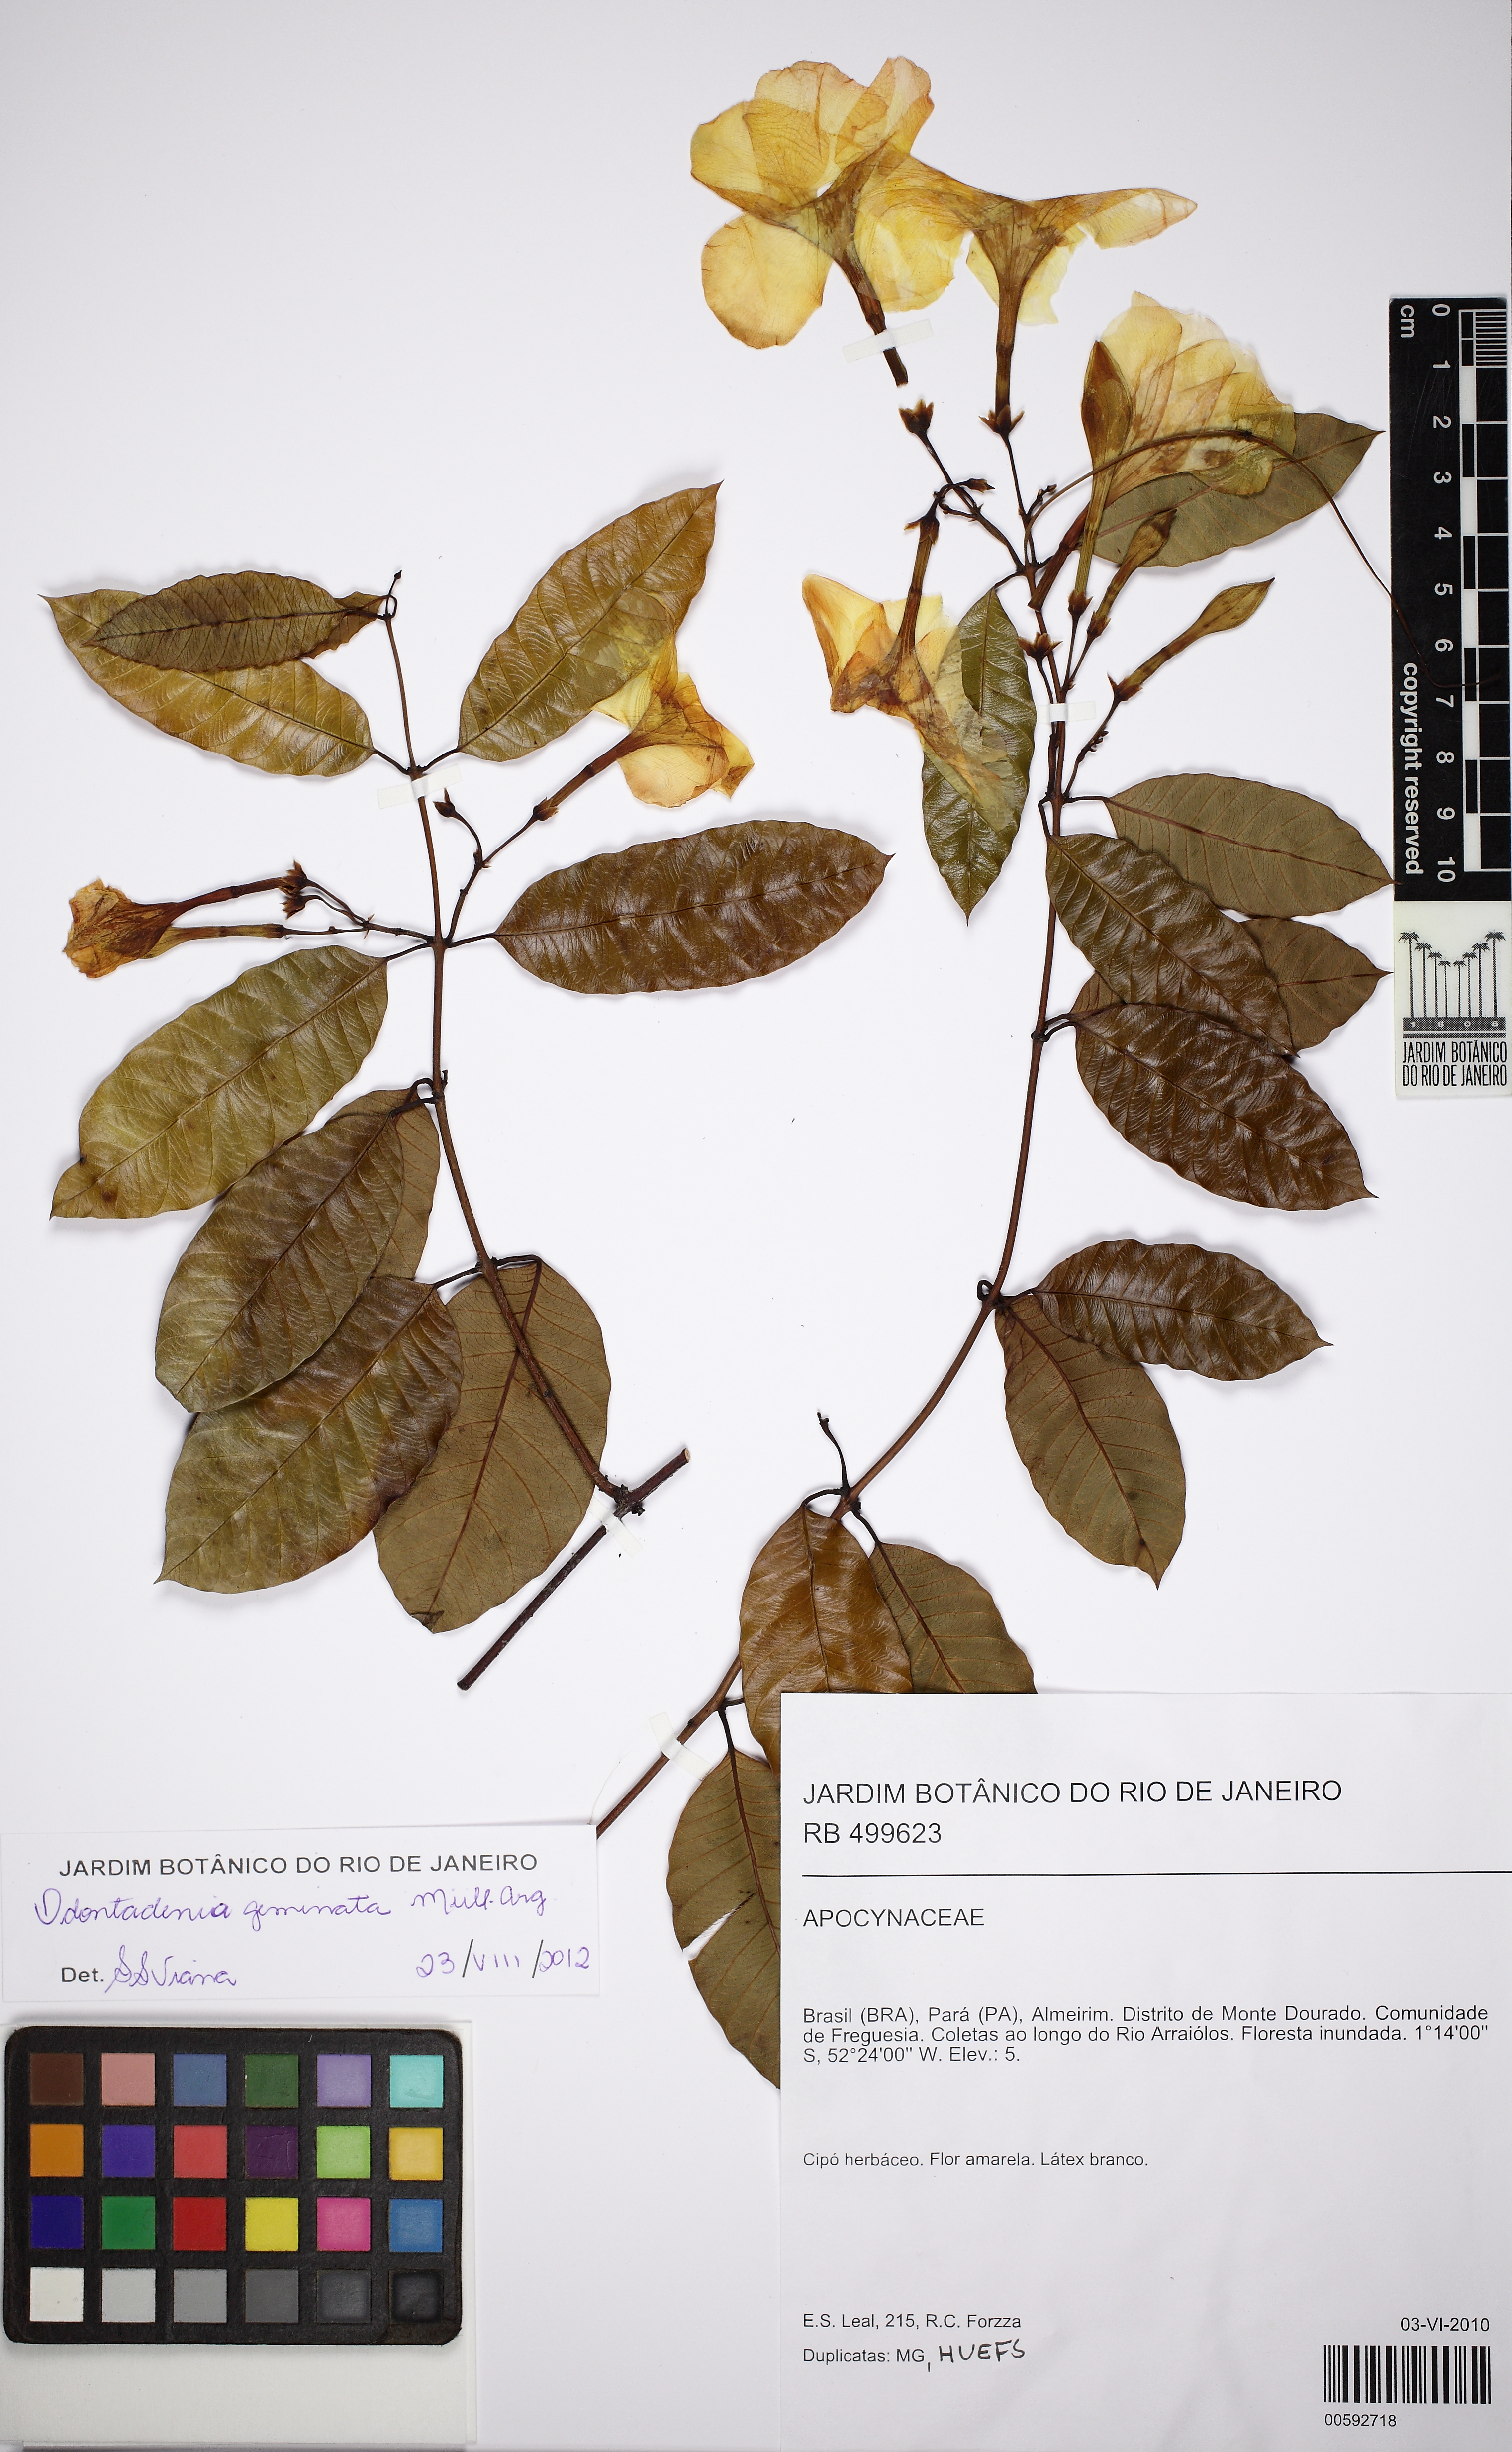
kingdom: Plantae
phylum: Tracheophyta
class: Magnoliopsida
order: Gentianales
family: Apocynaceae
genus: Odontadenia
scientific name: Odontadenia geminata
